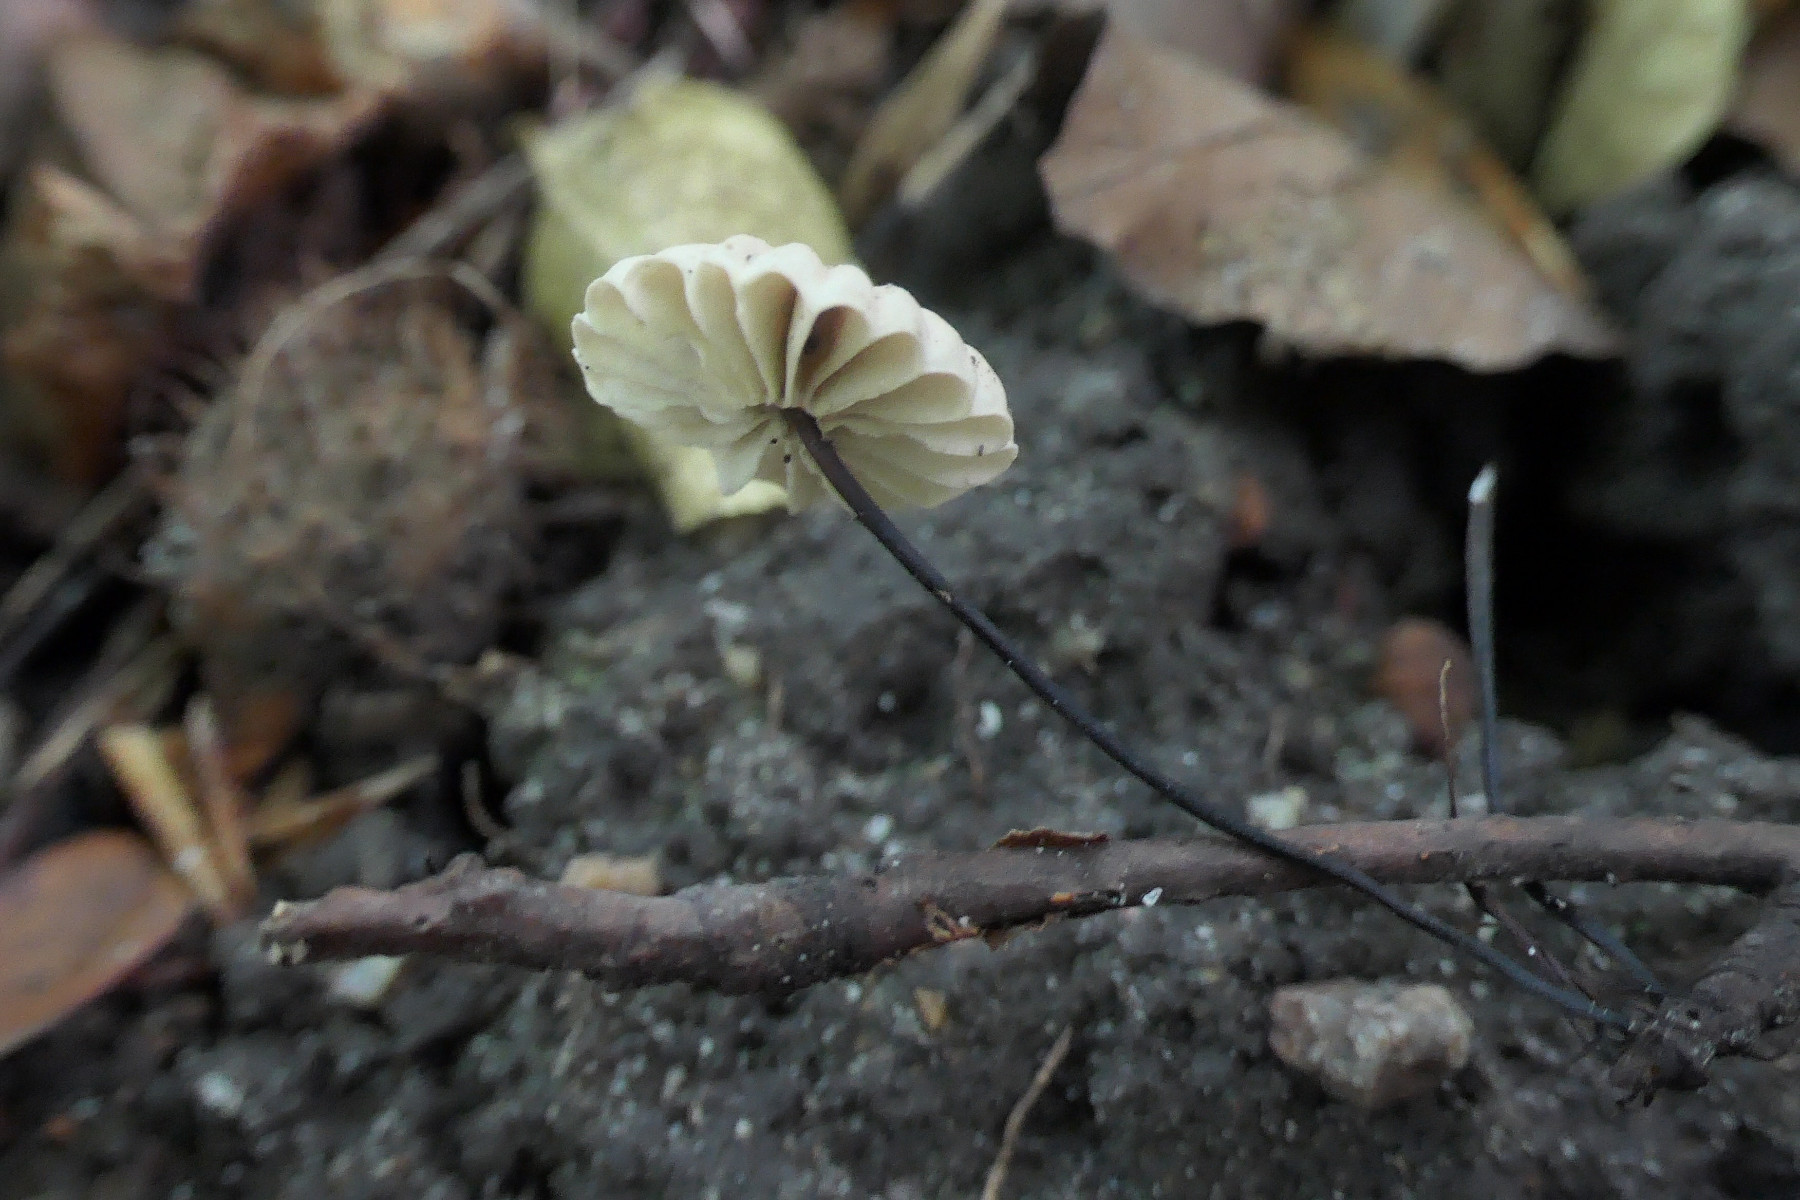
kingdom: Fungi
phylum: Basidiomycota
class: Agaricomycetes
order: Agaricales
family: Marasmiaceae
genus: Marasmius
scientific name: Marasmius rotula
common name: hjul-bruskhat
